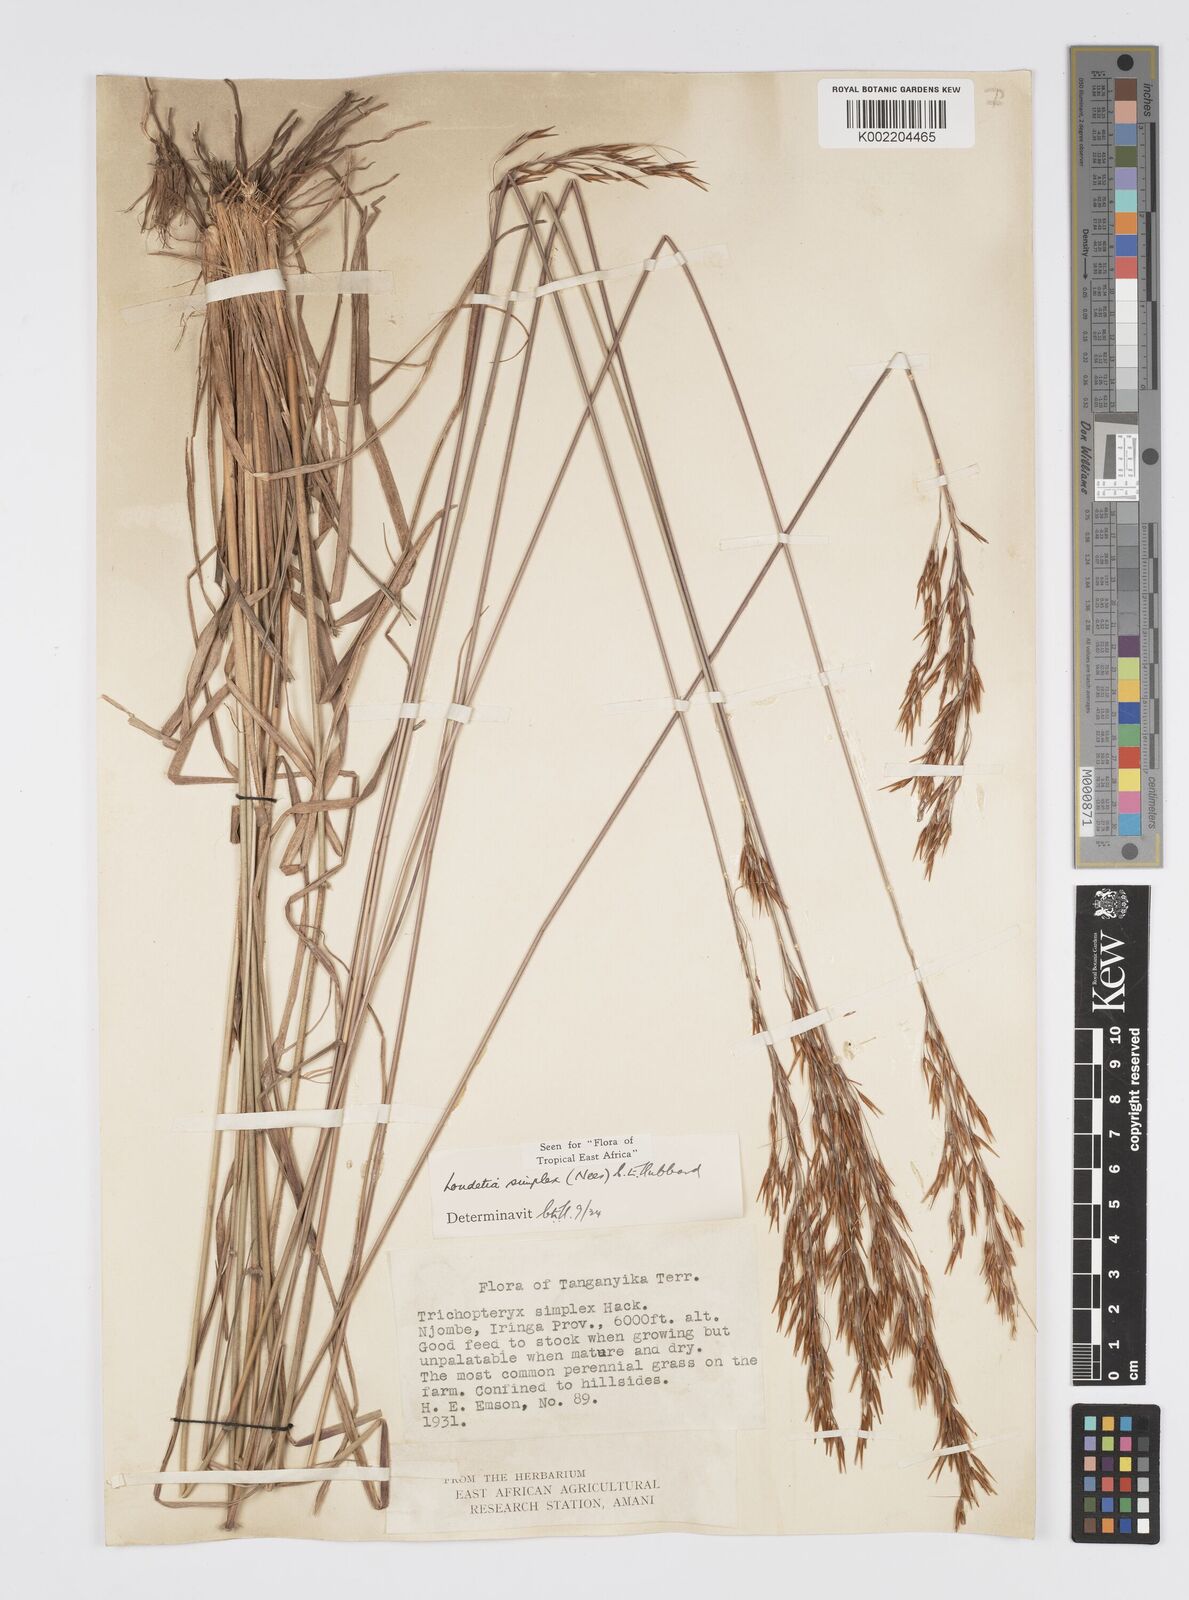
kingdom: Plantae
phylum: Tracheophyta
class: Liliopsida
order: Poales
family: Poaceae
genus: Loudetia
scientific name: Loudetia simplex
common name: Common russet grass
